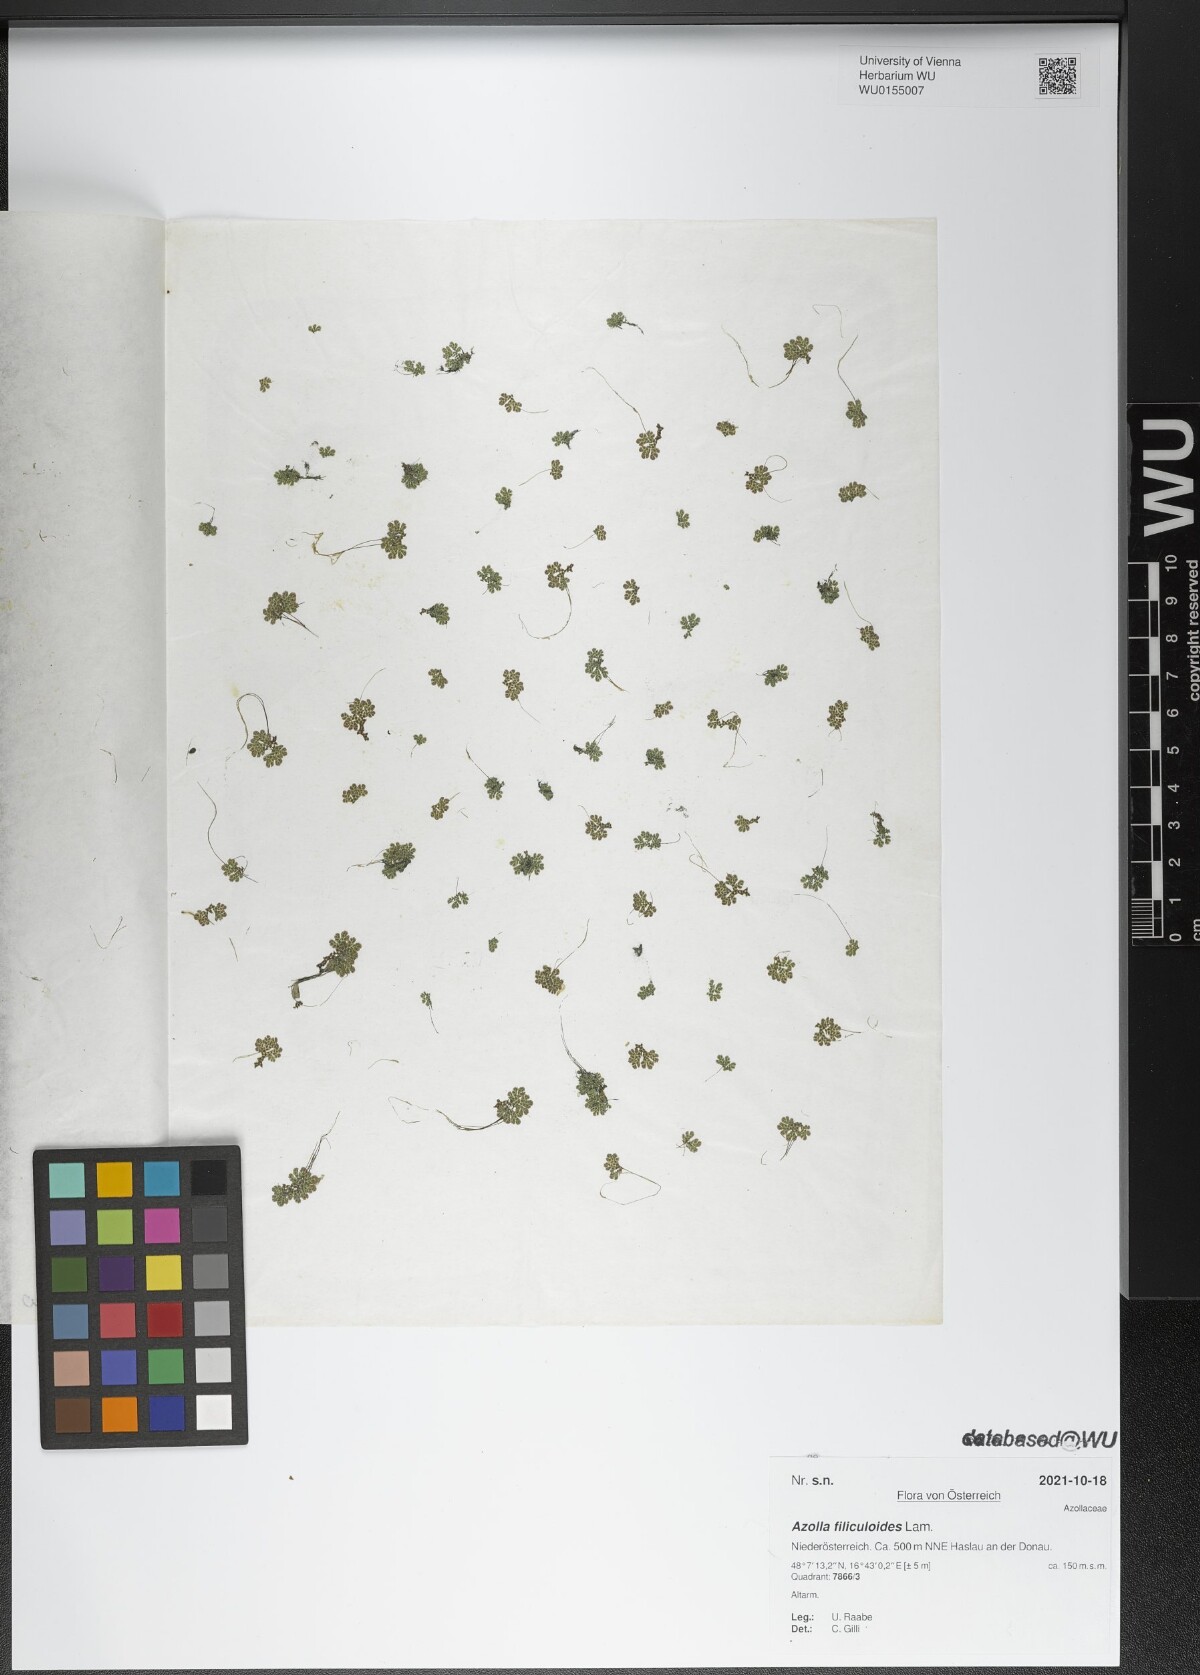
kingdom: Plantae
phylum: Tracheophyta
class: Polypodiopsida
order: Salviniales
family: Salviniaceae
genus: Azolla
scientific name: Azolla filiculoides
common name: Water fern
